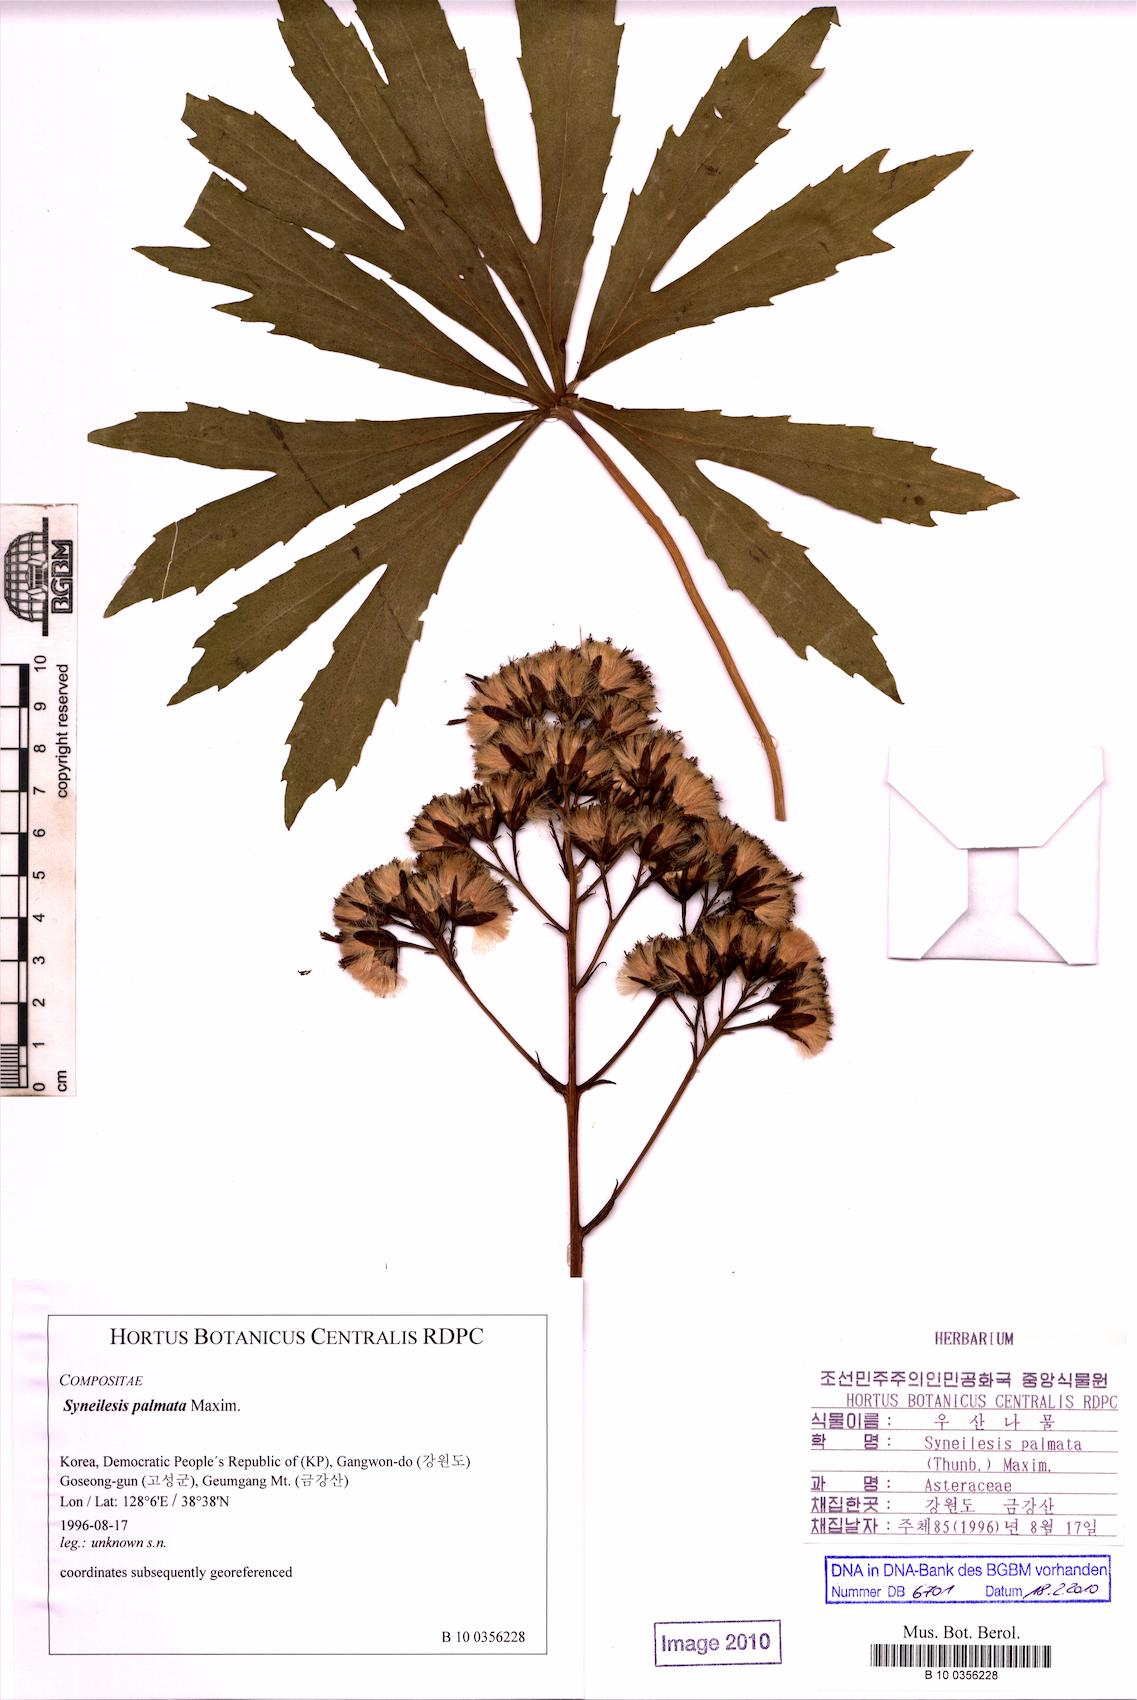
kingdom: Plantae
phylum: Tracheophyta
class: Magnoliopsida
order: Asterales
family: Asteraceae
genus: Syneilesis
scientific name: Syneilesis palmata
